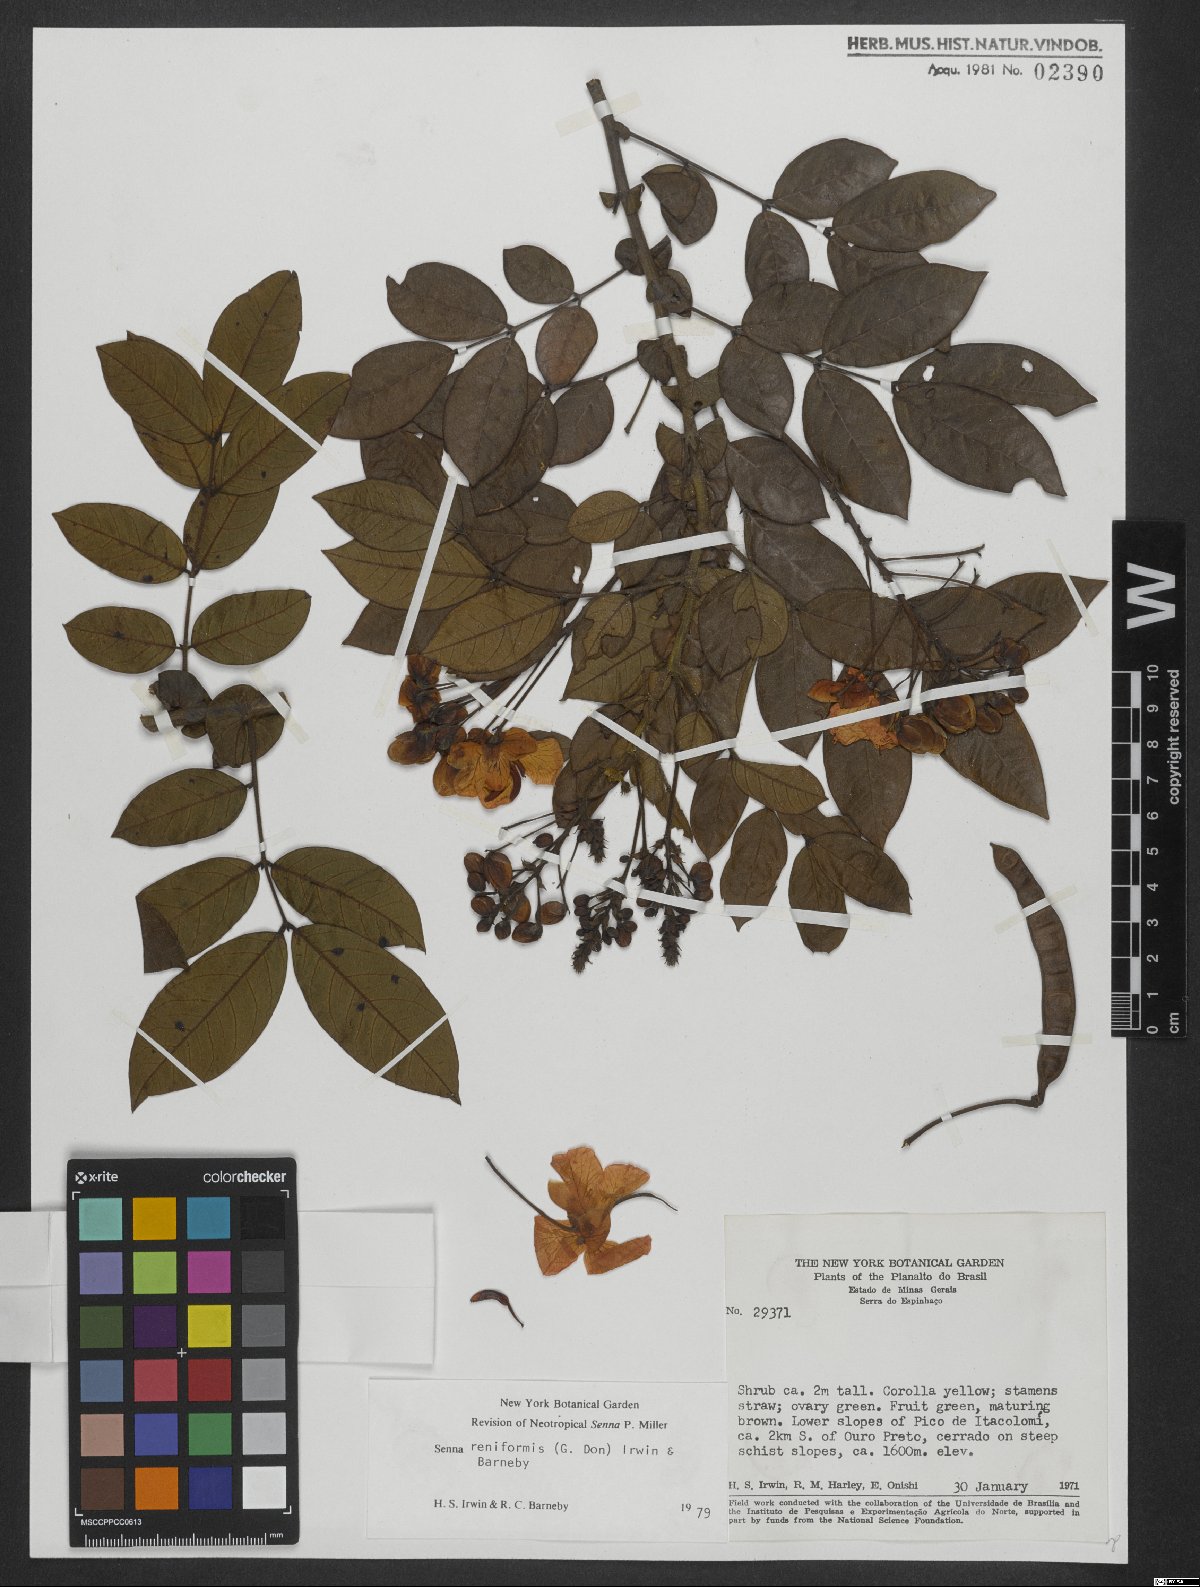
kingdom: Plantae
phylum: Tracheophyta
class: Magnoliopsida
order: Fabales
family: Fabaceae
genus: Senna
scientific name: Senna reniformis
